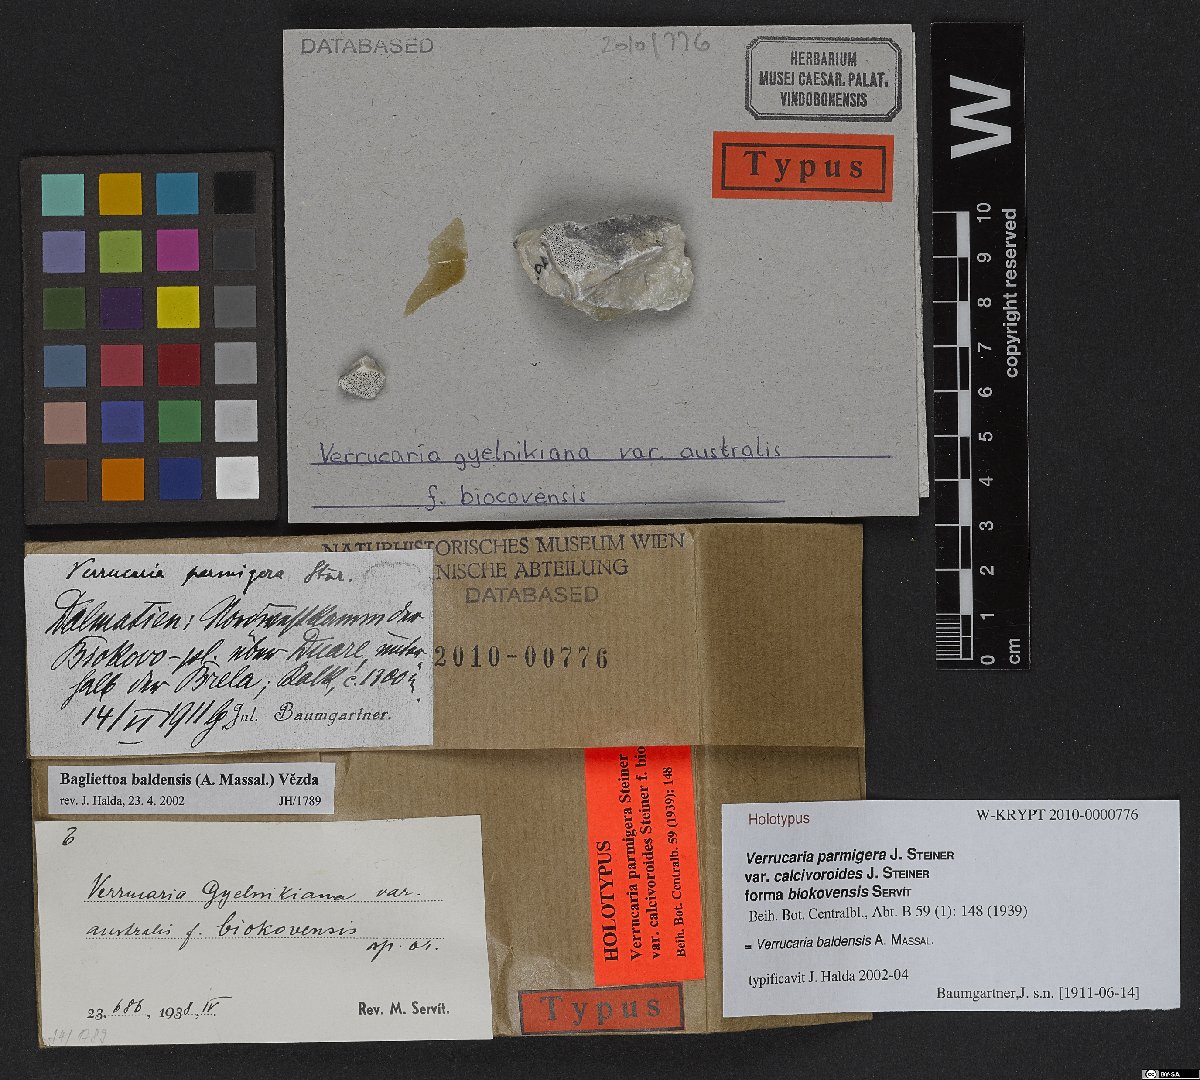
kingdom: Fungi
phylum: Ascomycota
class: Eurotiomycetes
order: Verrucariales
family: Verrucariaceae
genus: Bagliettoa
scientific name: Bagliettoa parmigera
